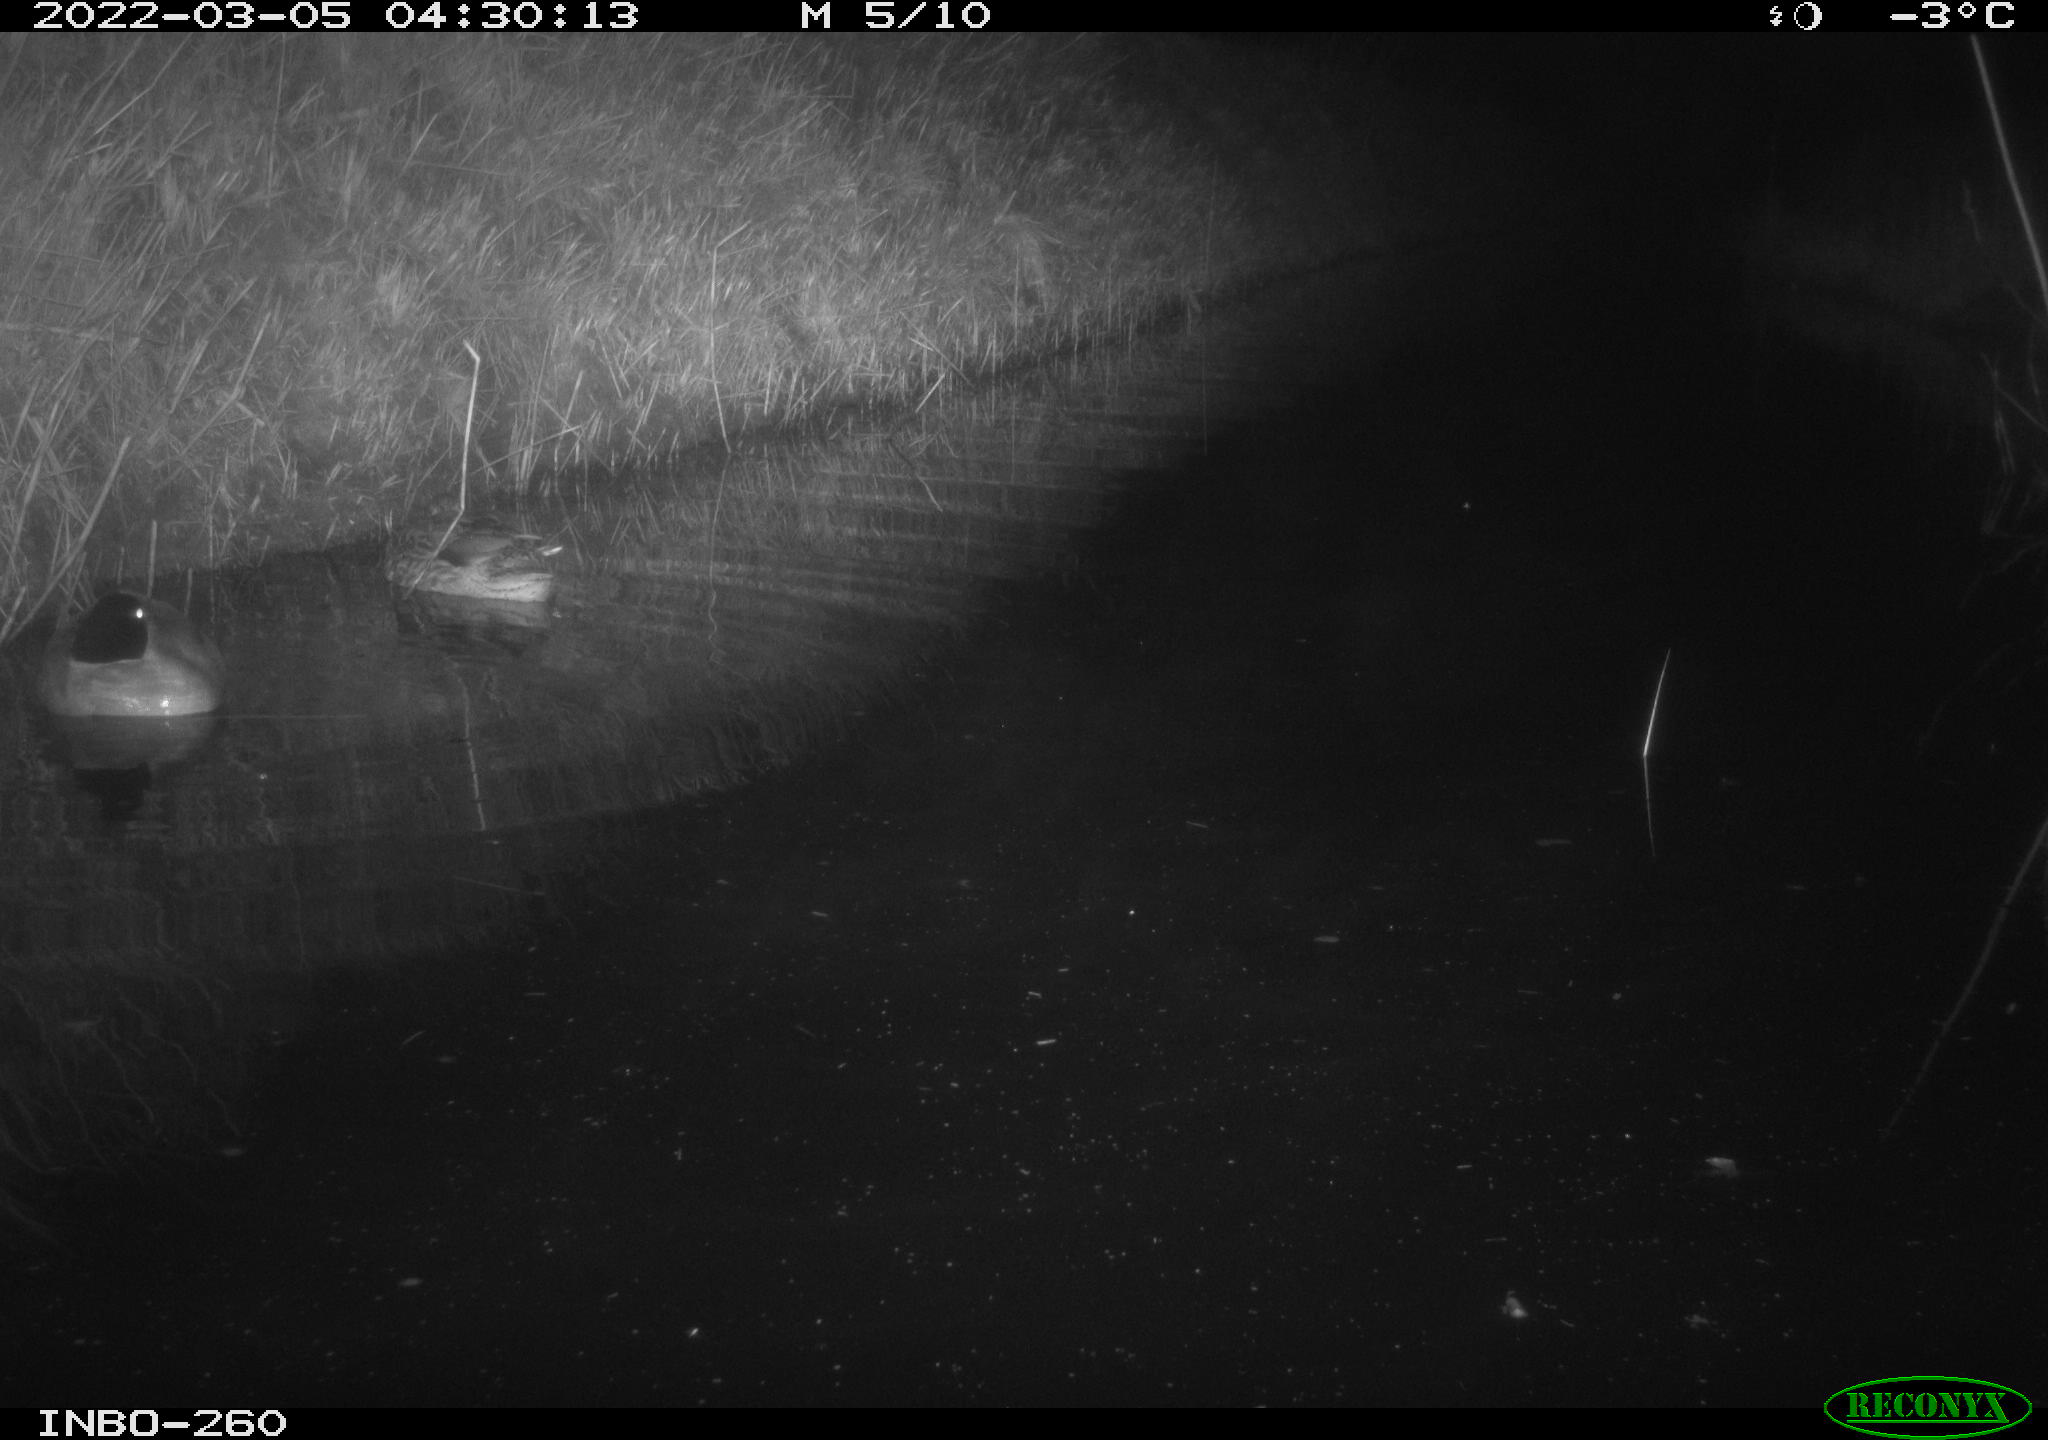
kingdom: Animalia
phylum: Chordata
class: Aves
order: Anseriformes
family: Anatidae
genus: Anas
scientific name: Anas platyrhynchos
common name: Mallard
